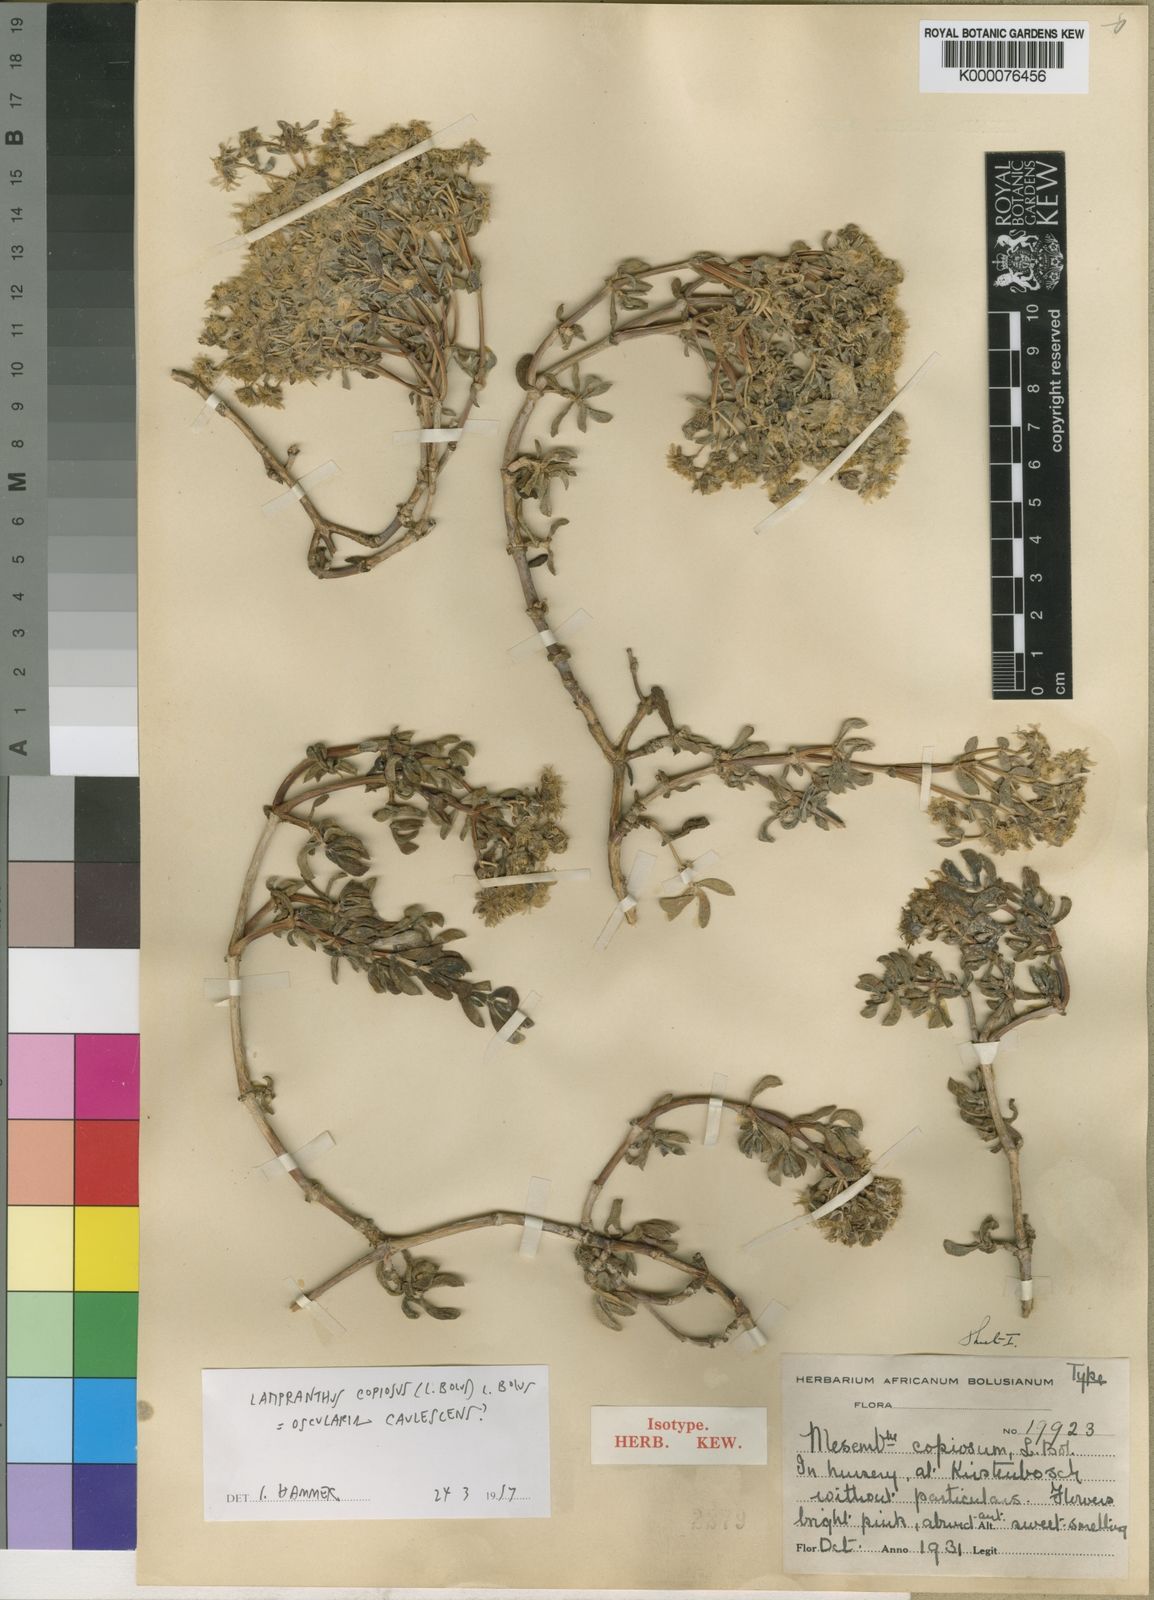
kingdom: Plantae
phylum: Tracheophyta
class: Magnoliopsida
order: Caryophyllales
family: Aizoaceae
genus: Oscularia
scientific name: Oscularia copiosa
